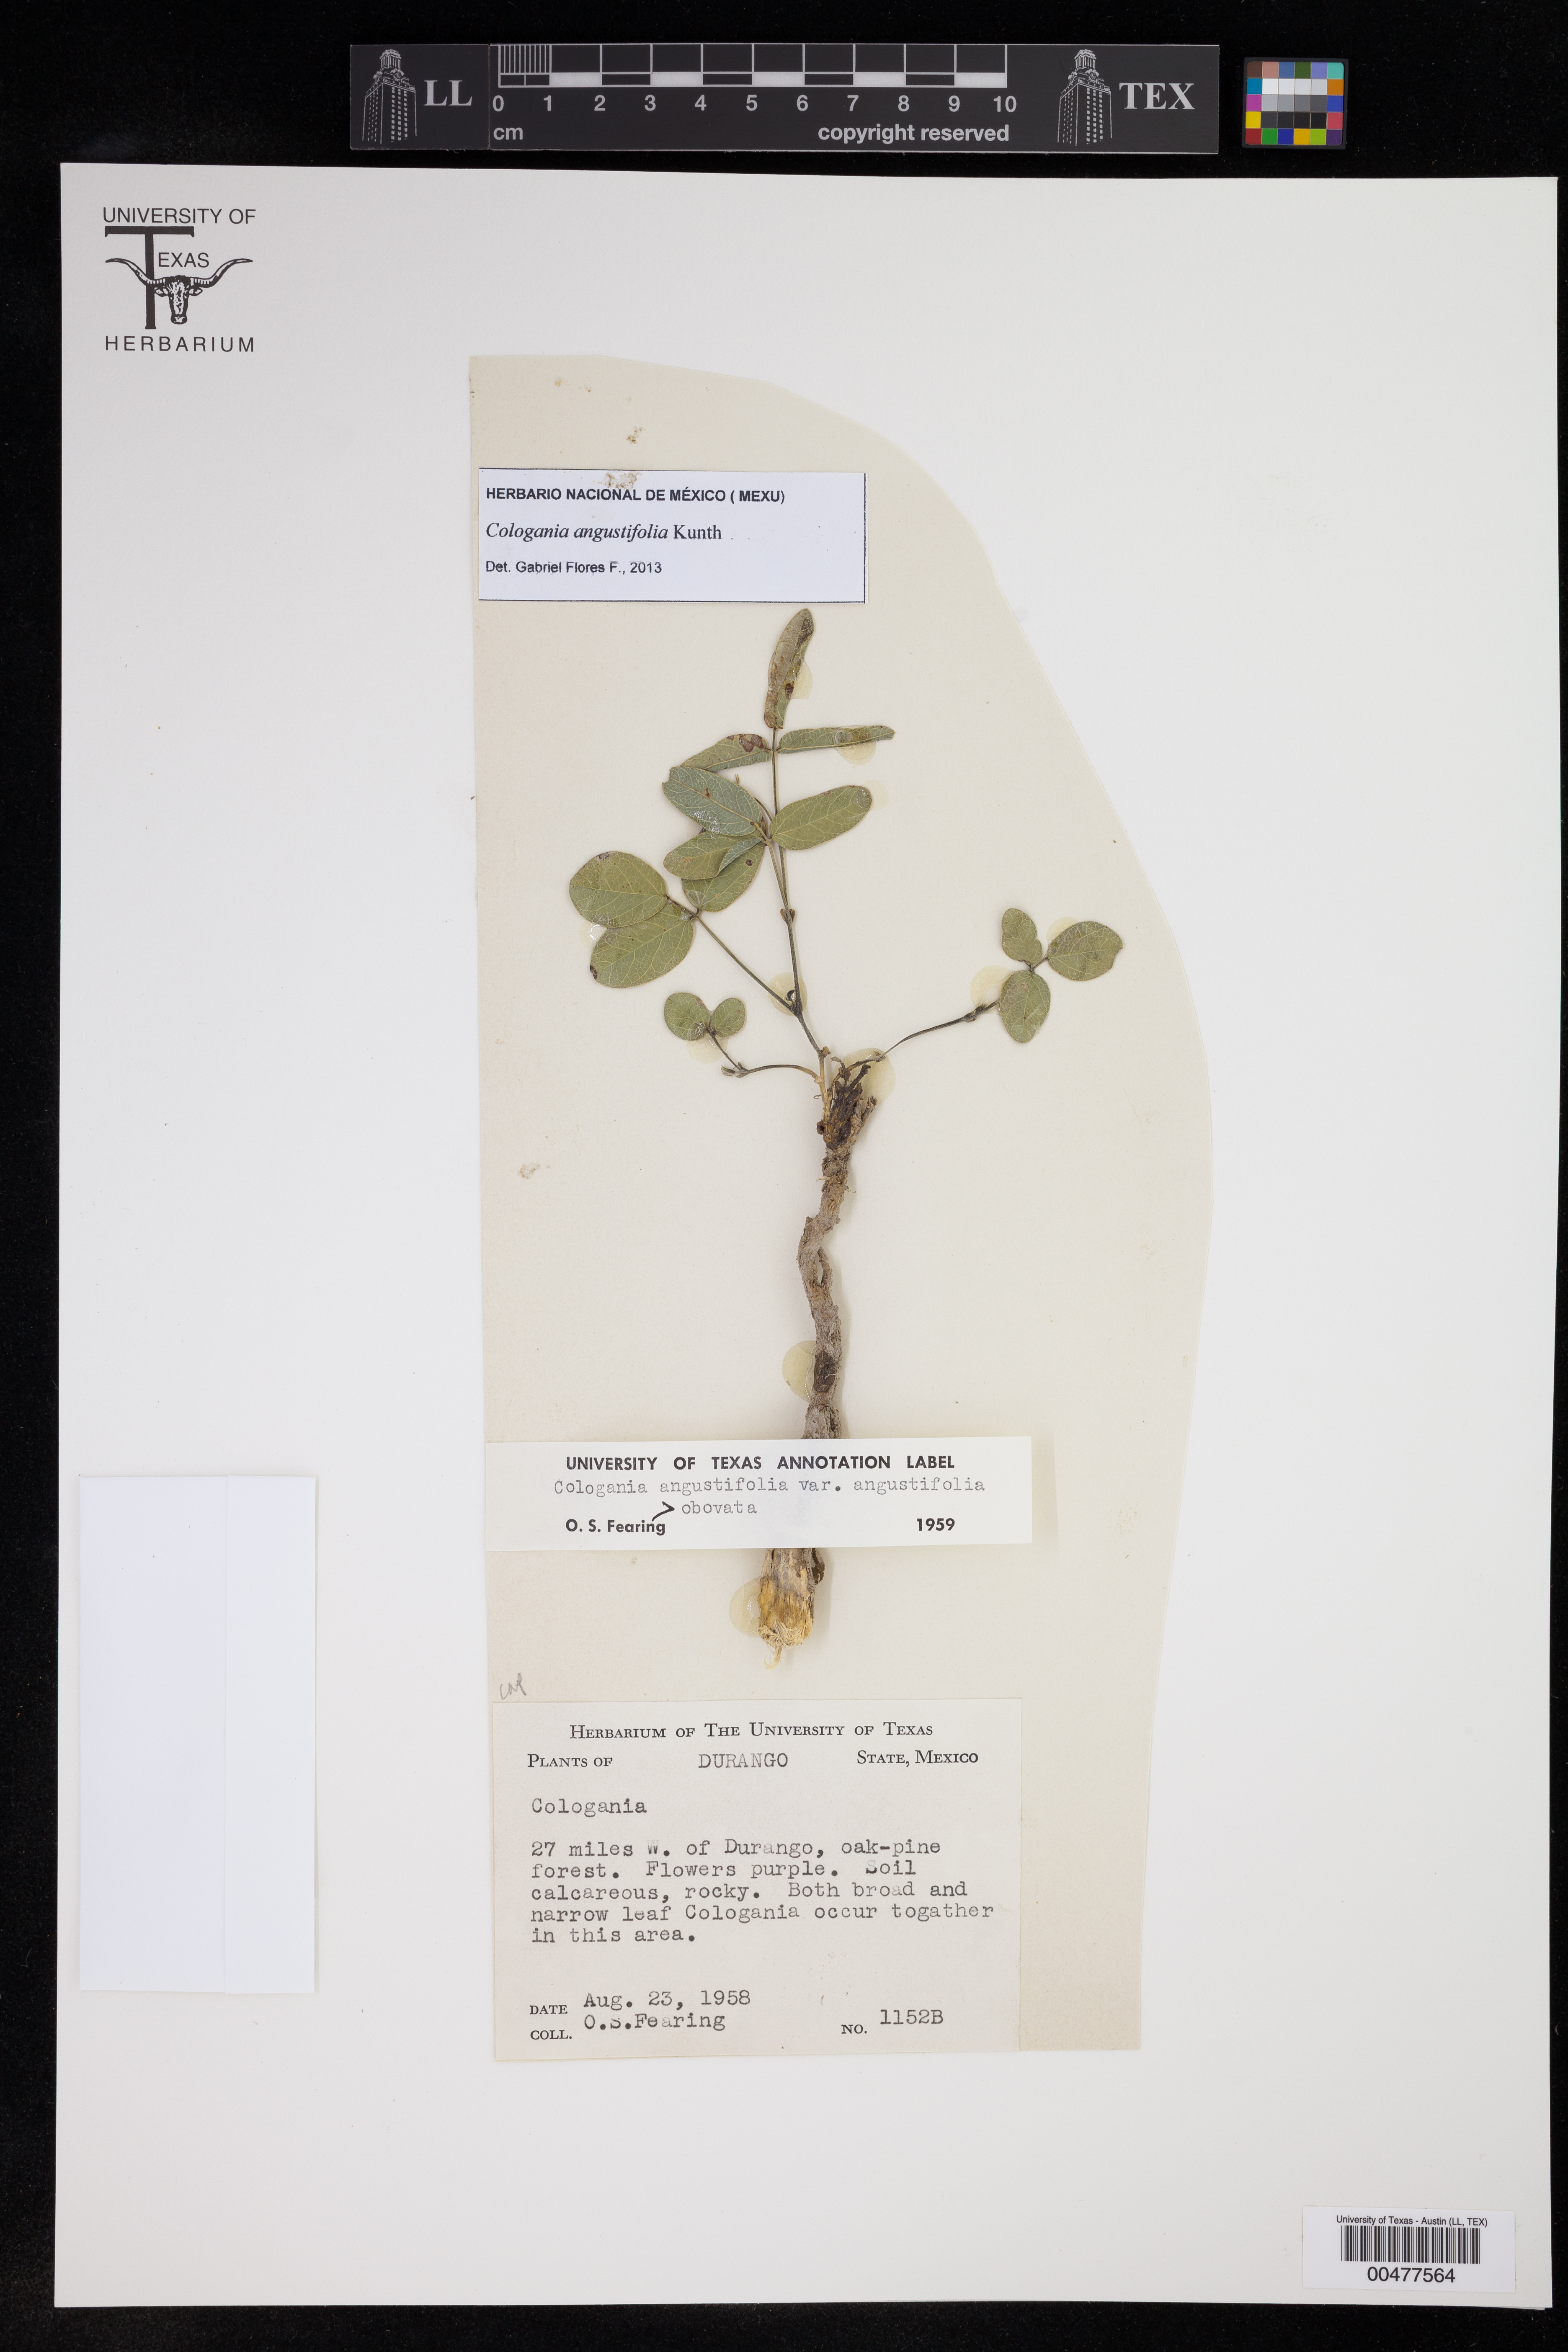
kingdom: Plantae
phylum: Tracheophyta
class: Magnoliopsida
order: Fabales
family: Fabaceae
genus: Cologania
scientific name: Cologania angustifolia
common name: Longleaf cologania
